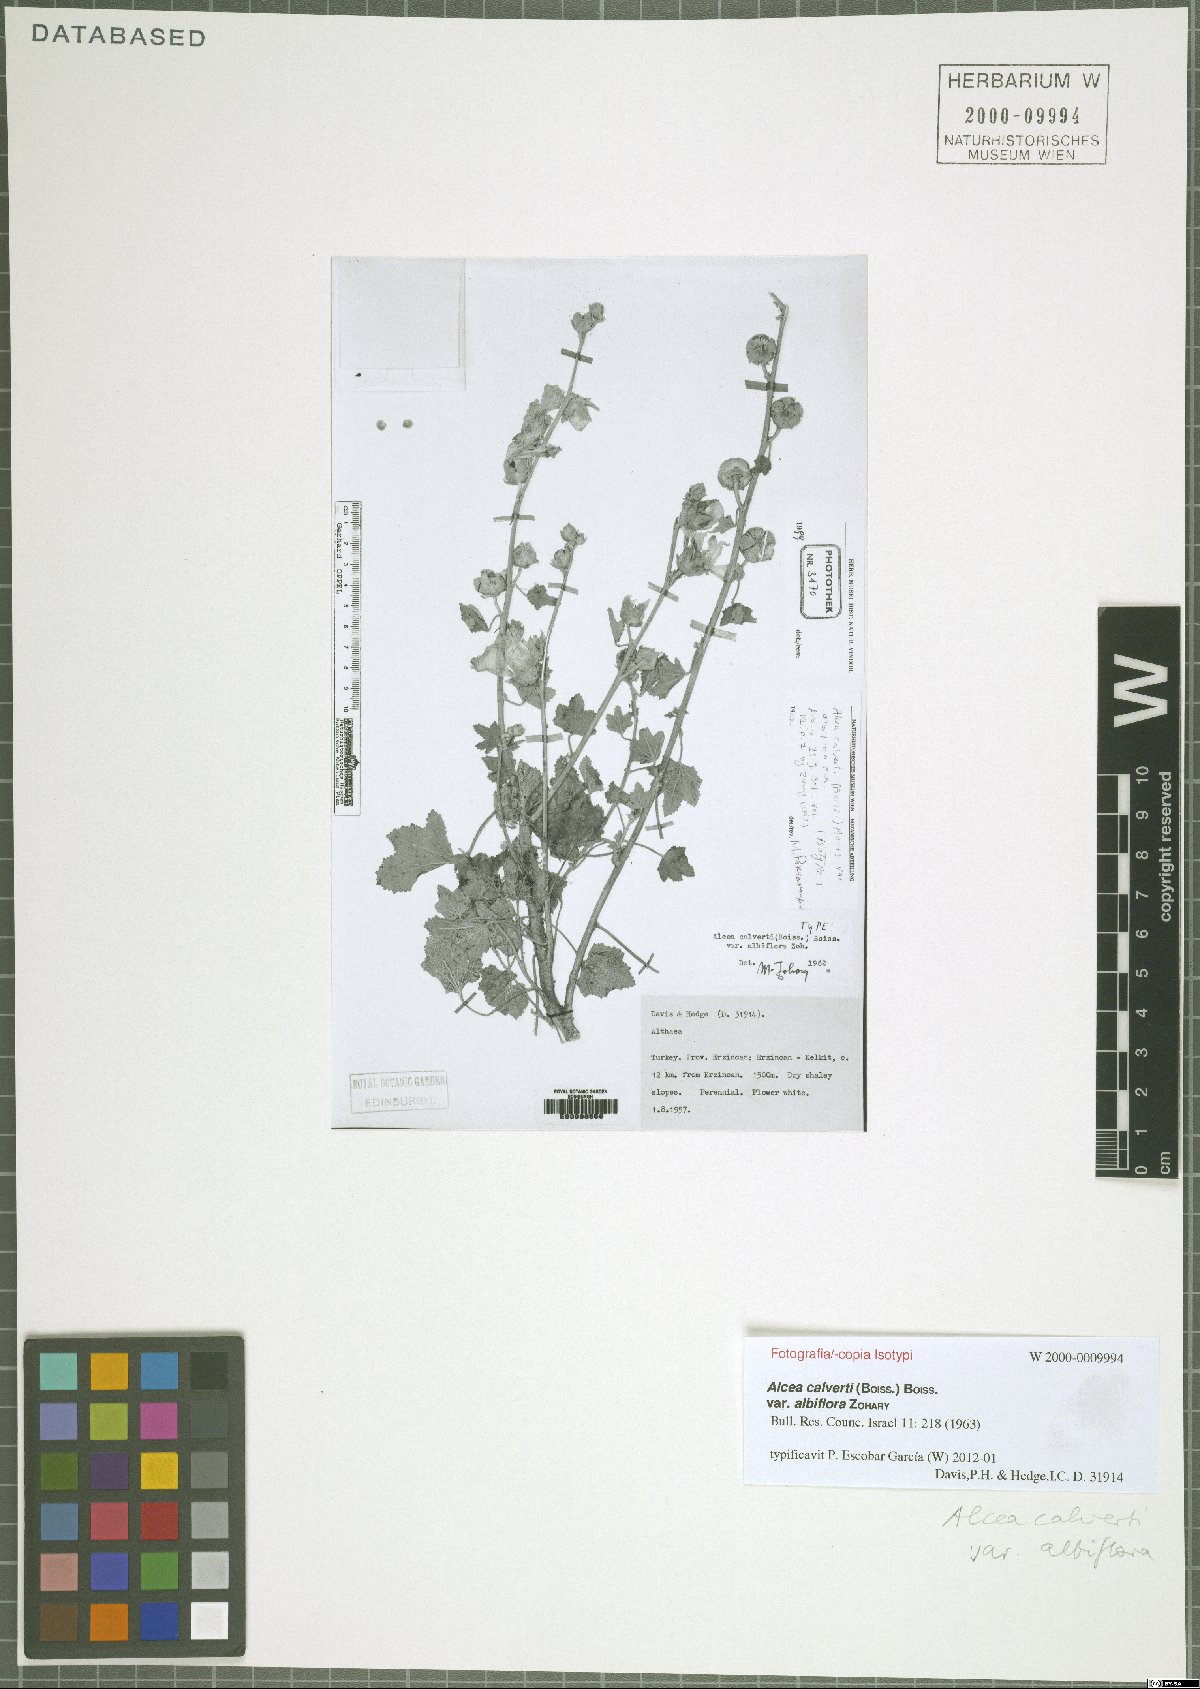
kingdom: Plantae
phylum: Tracheophyta
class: Magnoliopsida
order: Malvales
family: Malvaceae
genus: Alcea
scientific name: Alcea calverti
